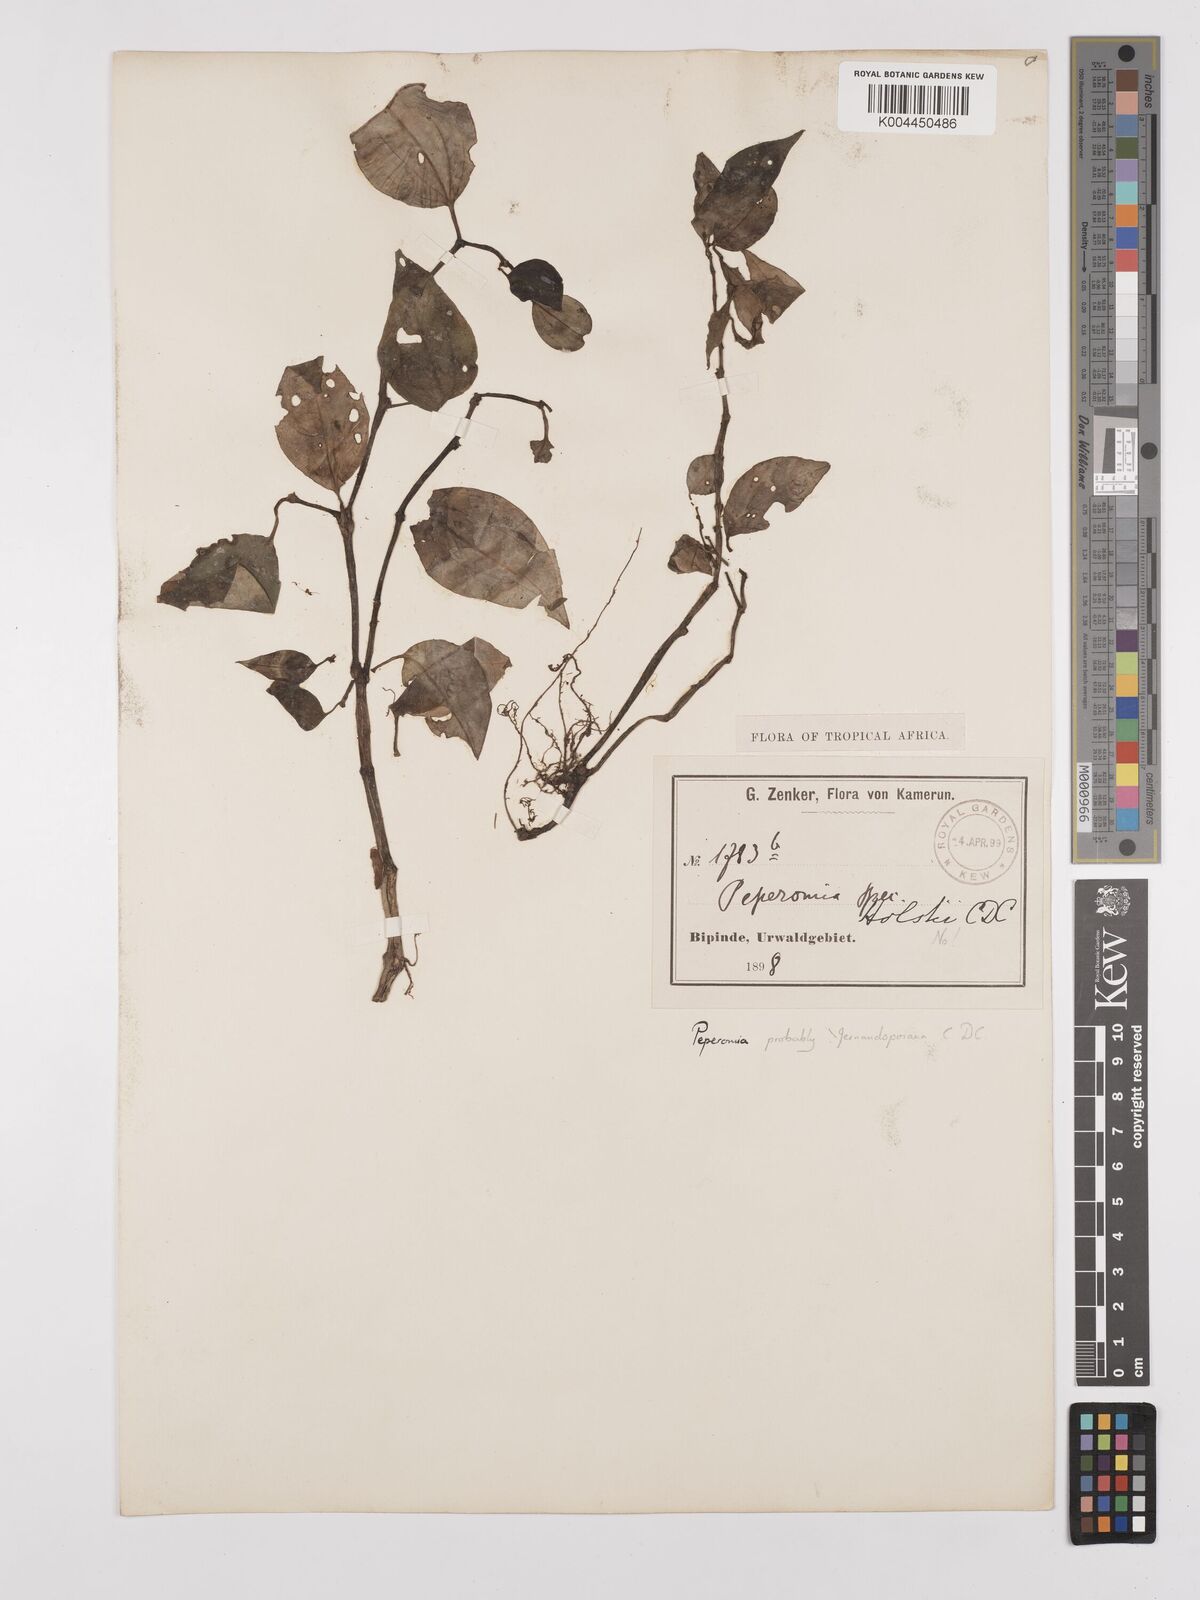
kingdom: Plantae
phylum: Tracheophyta
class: Magnoliopsida
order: Piperales
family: Piperaceae
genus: Peperomia
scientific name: Peperomia fernandopoiana
